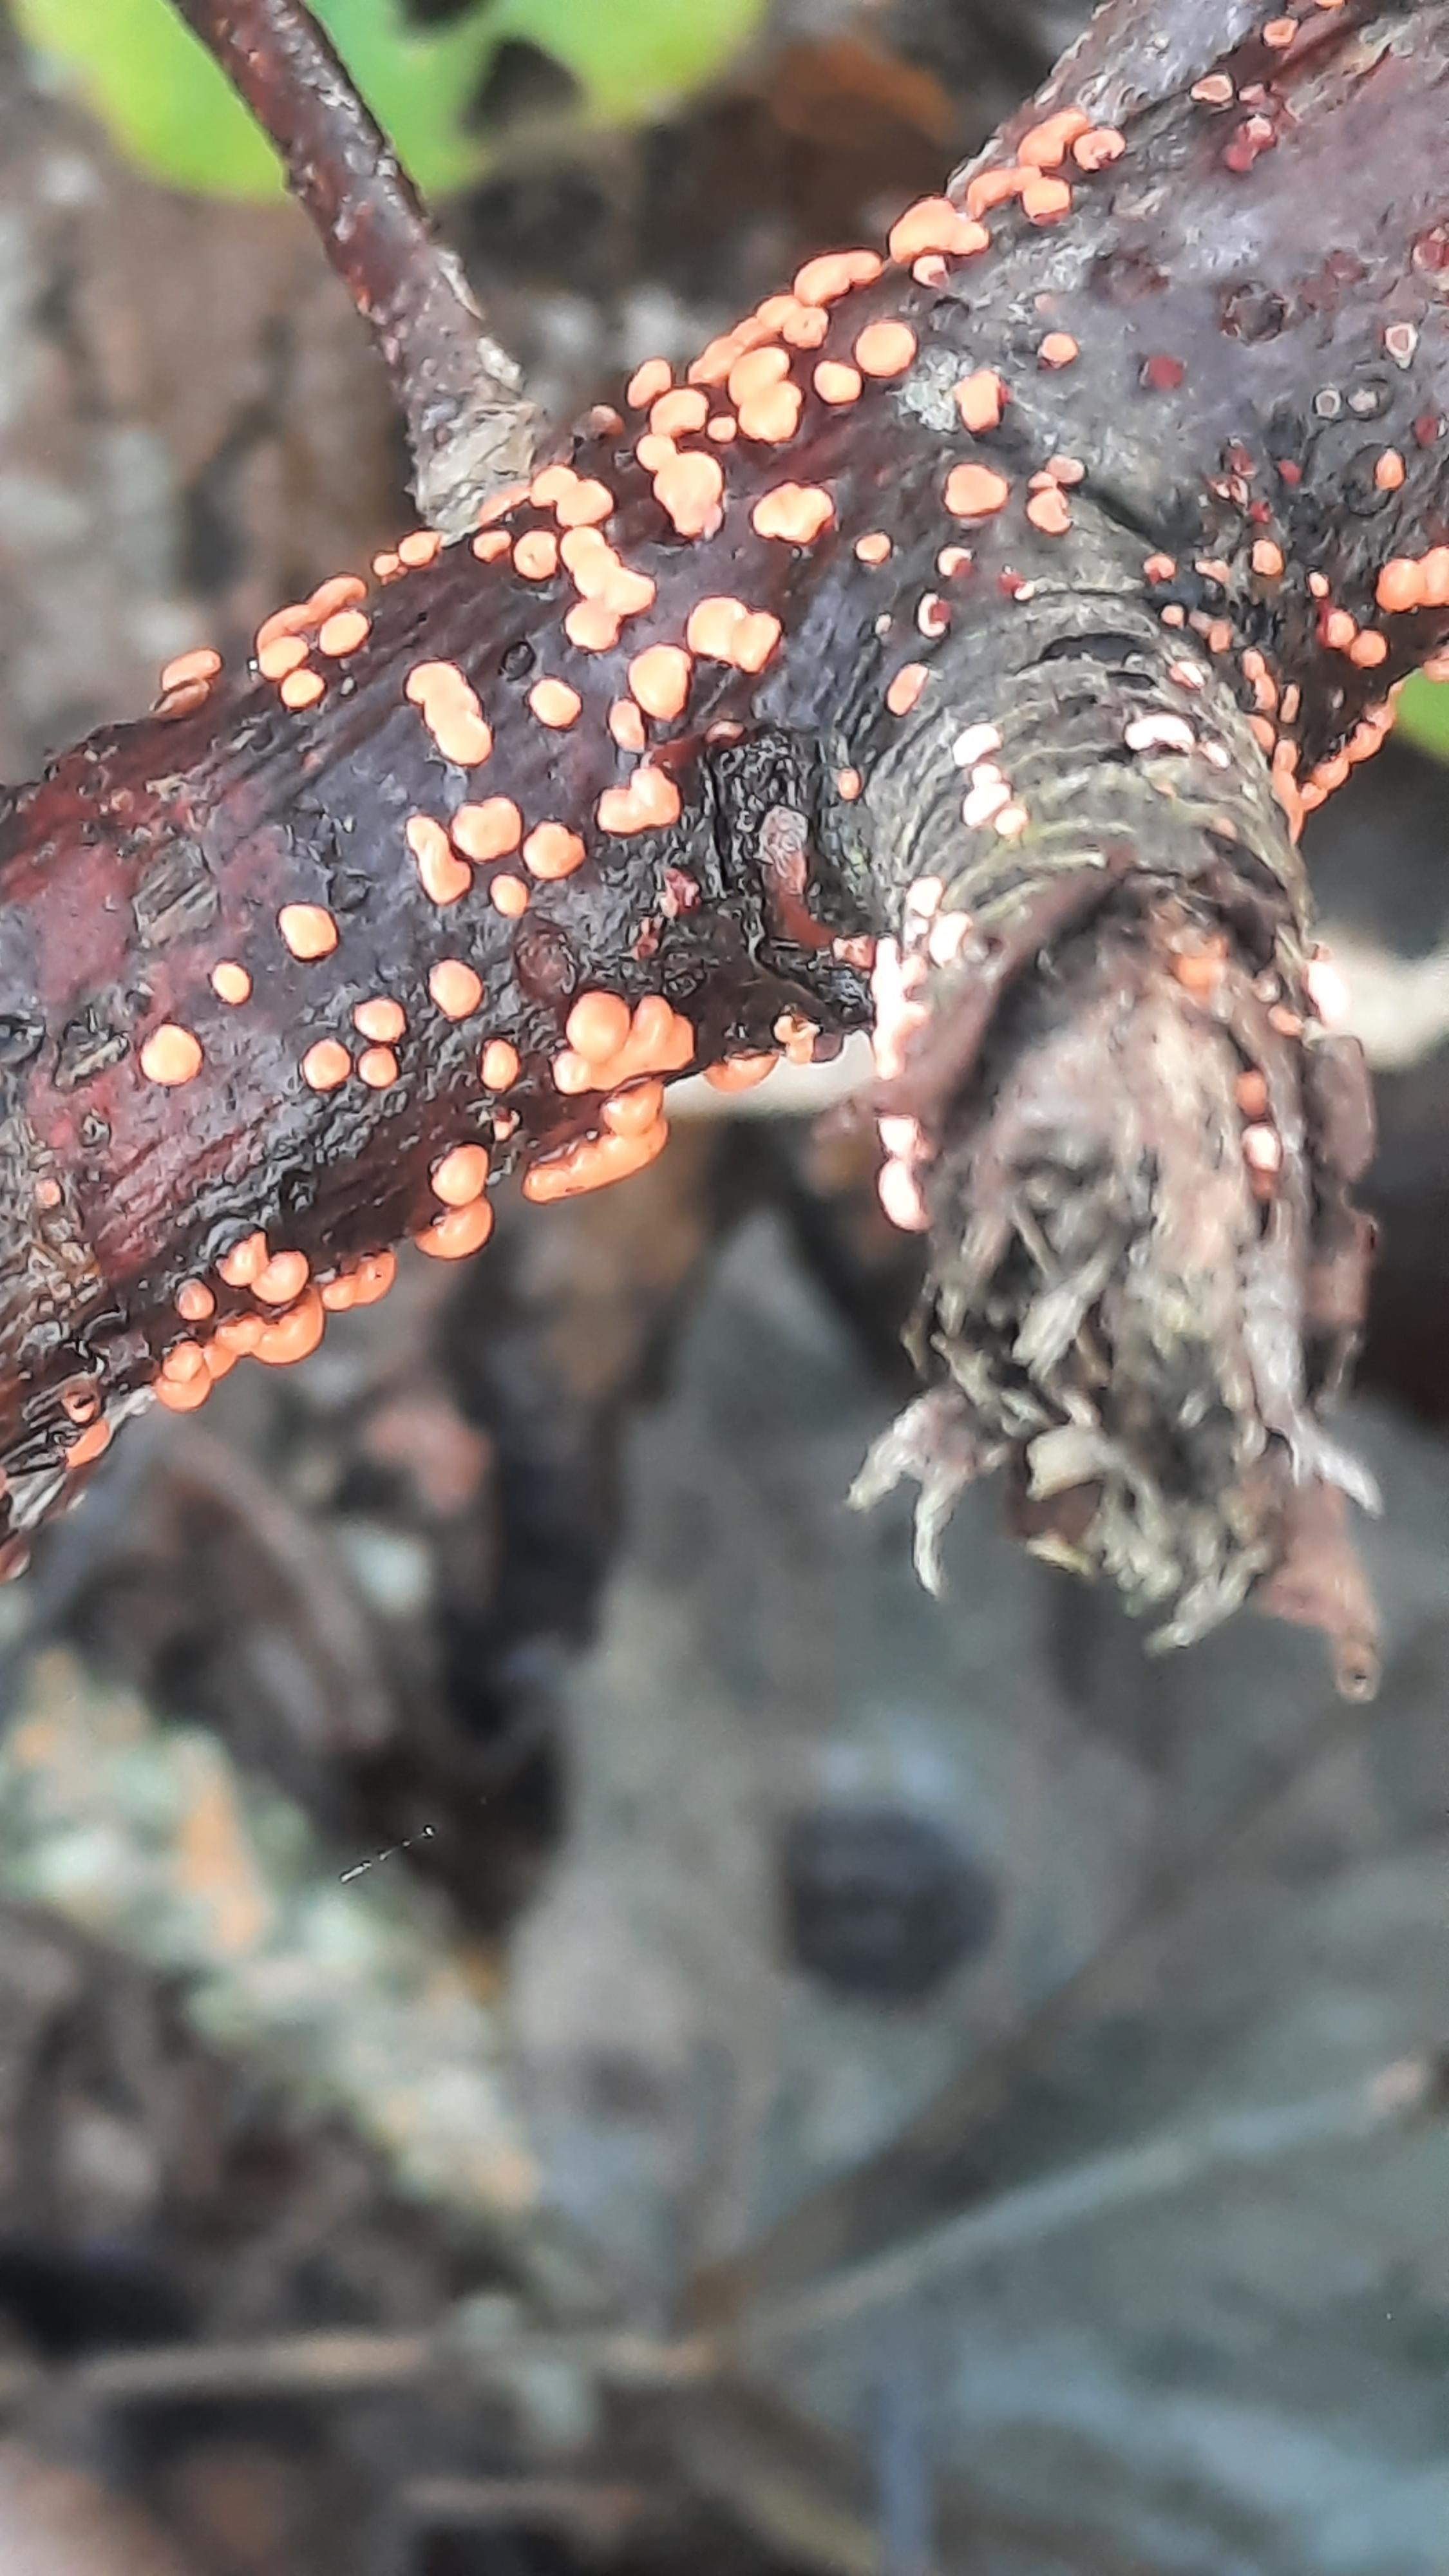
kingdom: Fungi
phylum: Ascomycota
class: Sordariomycetes
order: Hypocreales
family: Nectriaceae
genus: Nectria
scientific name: Nectria cinnabarina
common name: almindelig cinnobersvamp
